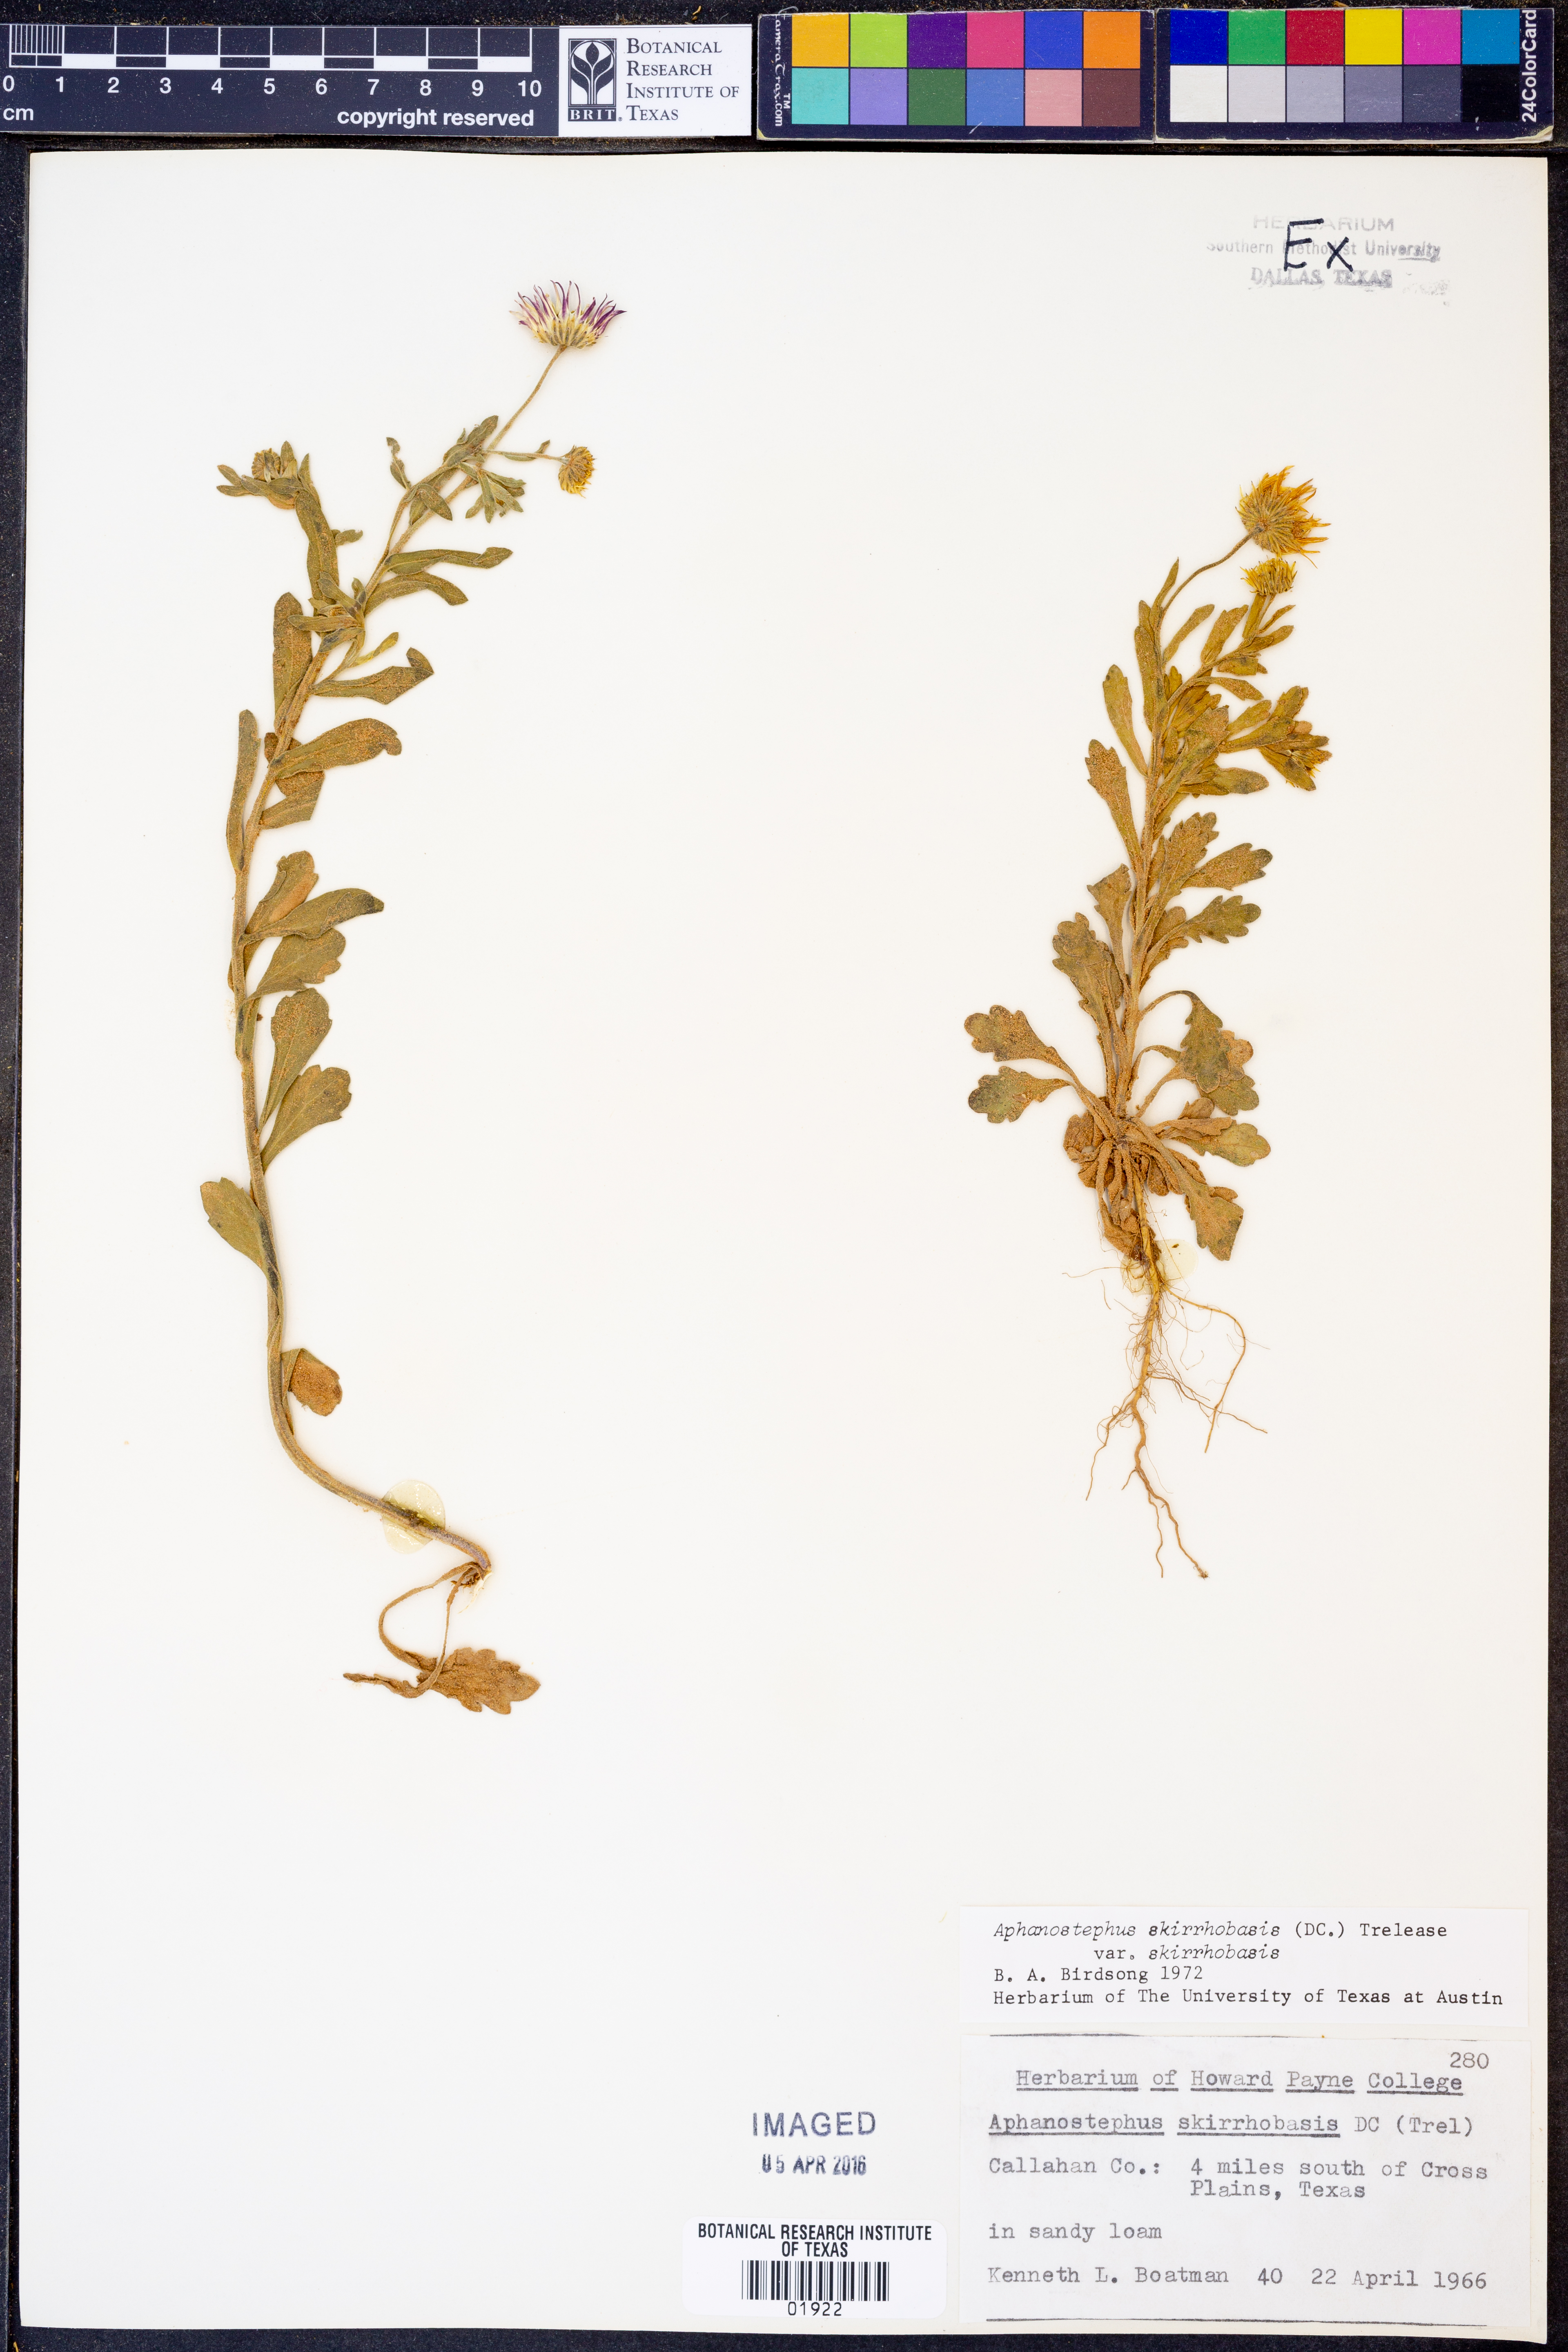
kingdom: Plantae
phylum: Tracheophyta
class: Magnoliopsida
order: Asterales
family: Asteraceae
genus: Aphanostephus
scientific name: Aphanostephus skirrhobasis
